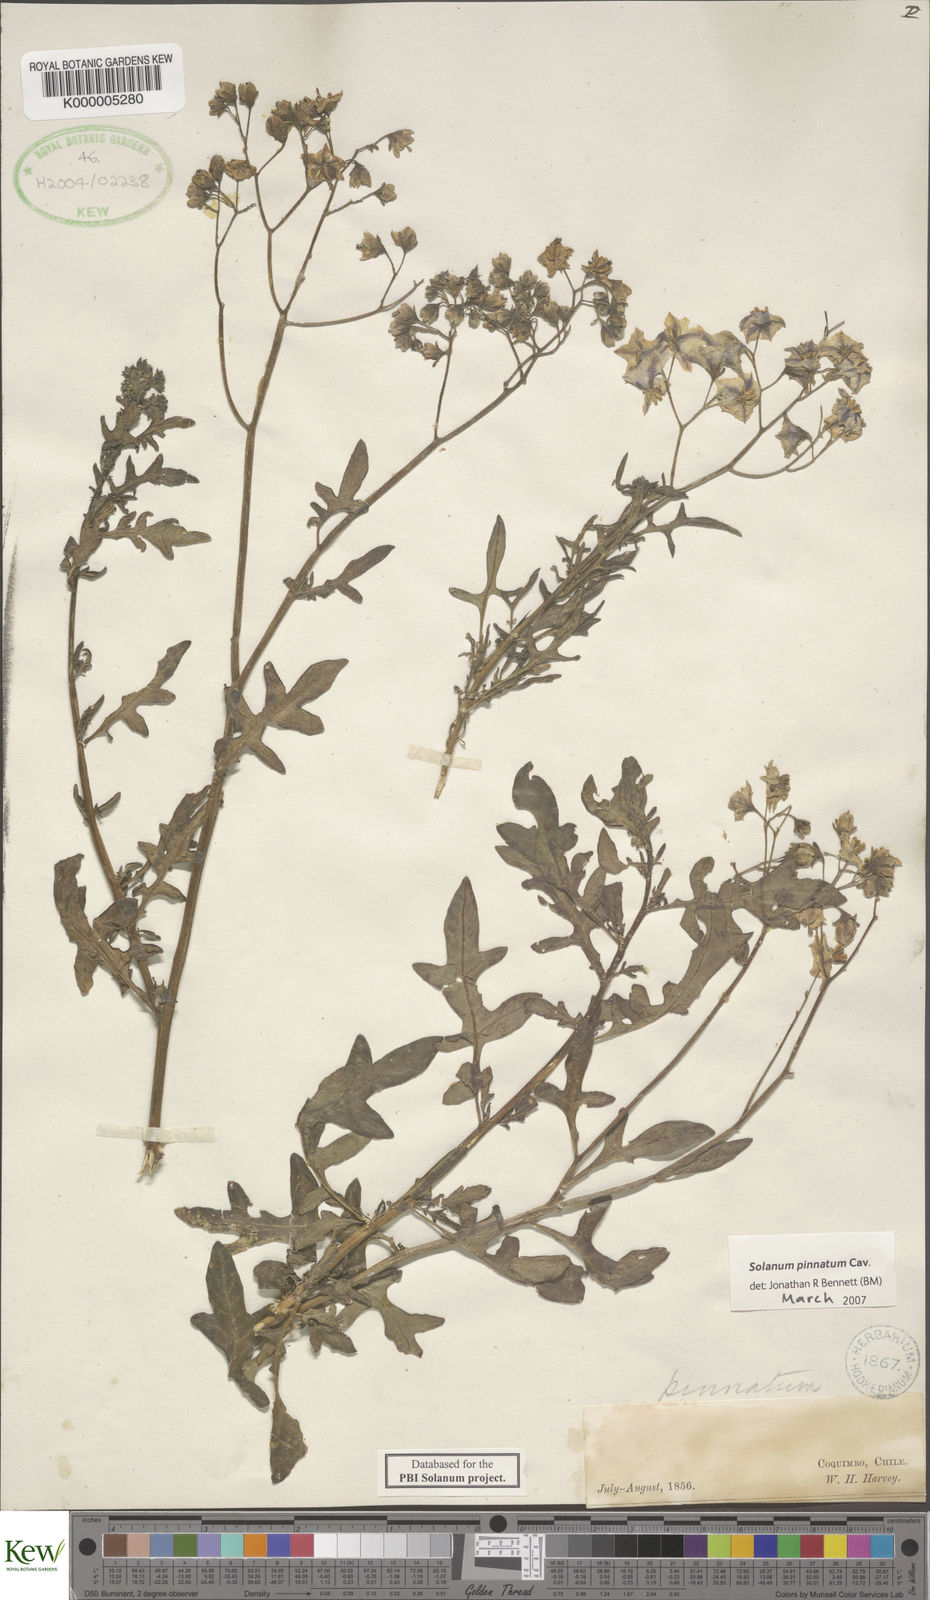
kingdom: Plantae
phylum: Tracheophyta
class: Magnoliopsida
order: Solanales
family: Solanaceae
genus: Solanum
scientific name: Solanum pinnatum
